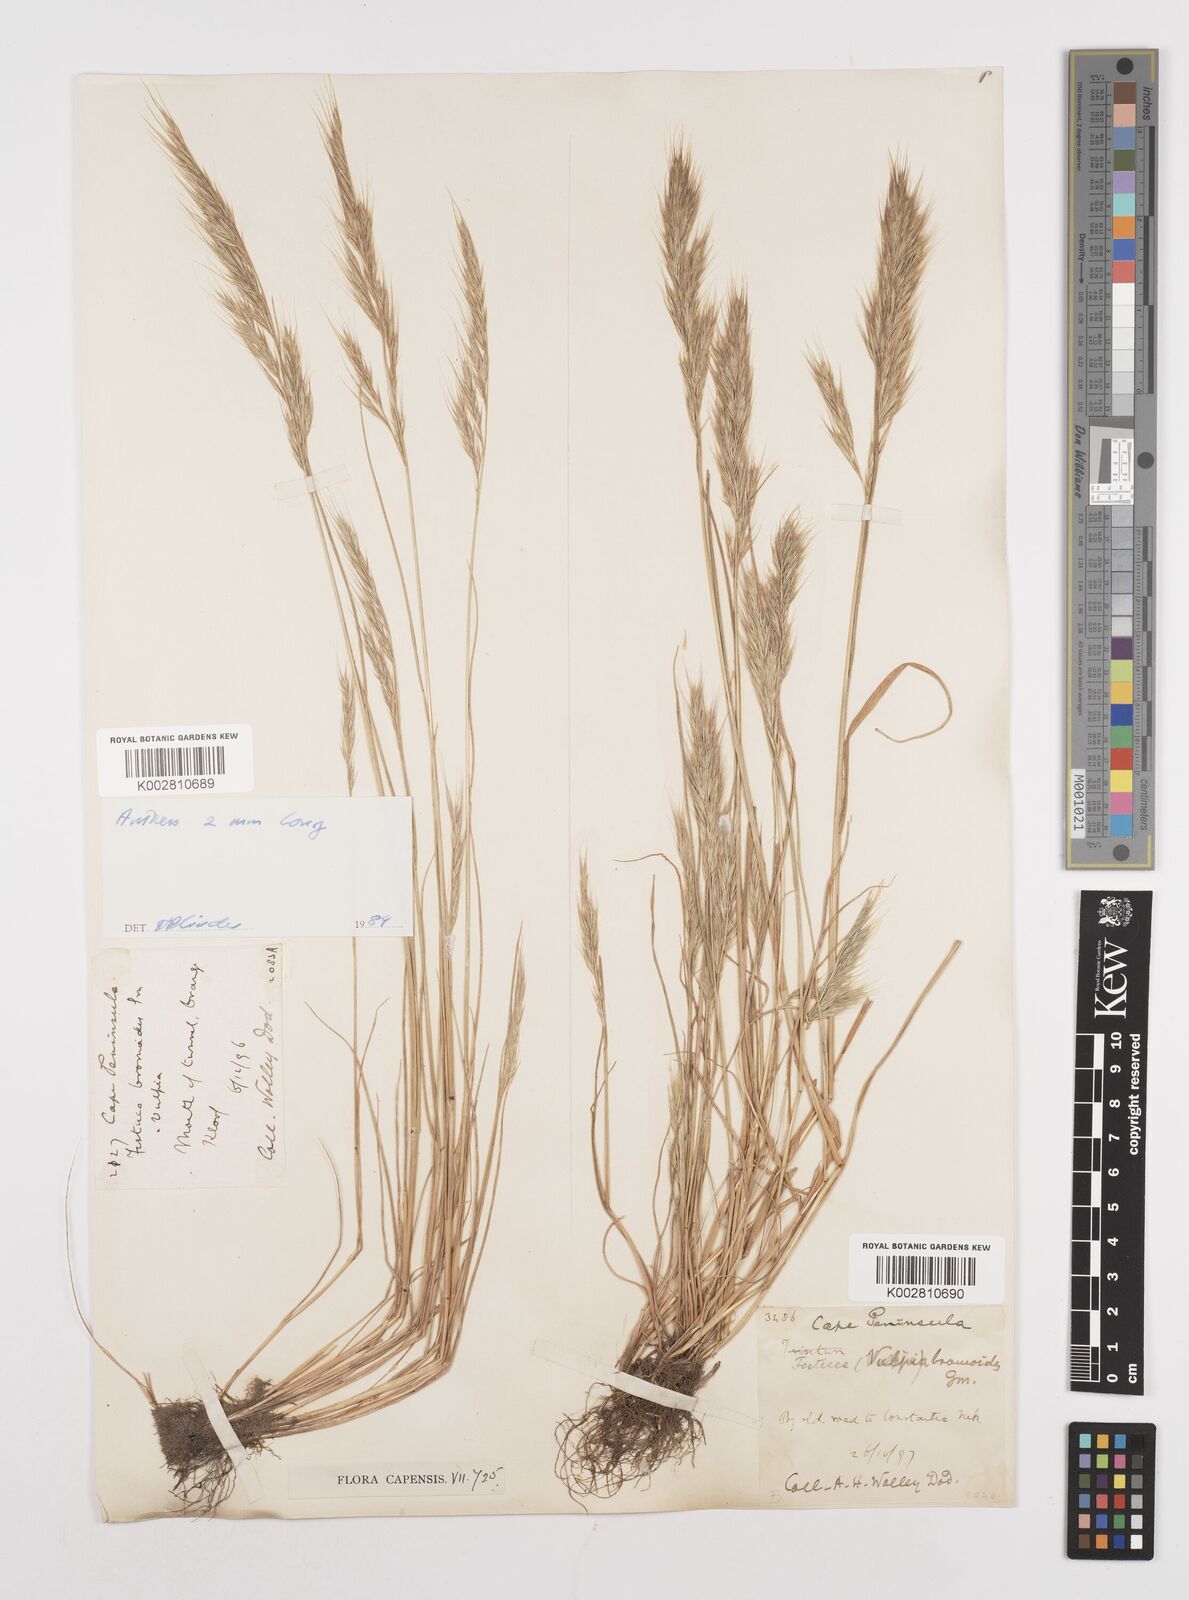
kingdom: Plantae
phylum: Tracheophyta
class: Liliopsida
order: Poales
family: Poaceae
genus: Festuca
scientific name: Festuca bromoides
